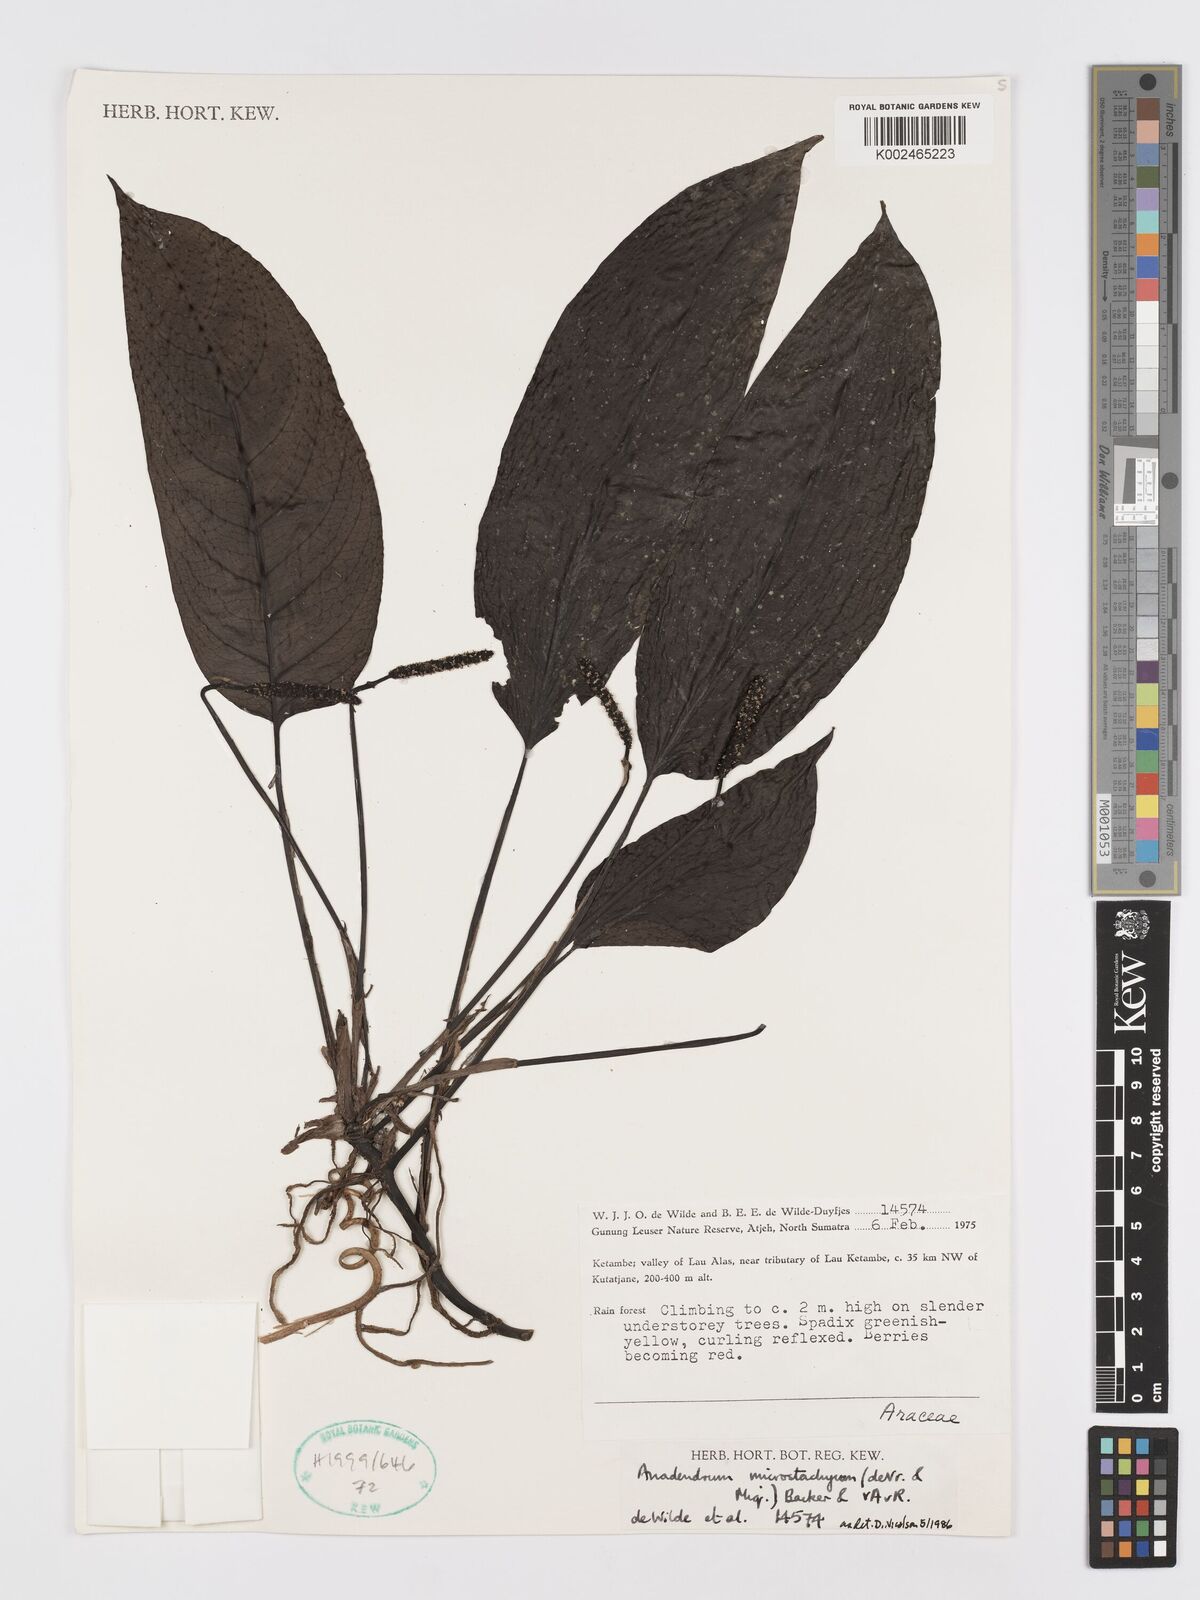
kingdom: Plantae
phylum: Tracheophyta
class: Liliopsida
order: Alismatales
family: Araceae
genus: Anadendrum
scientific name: Anadendrum microstachyum
